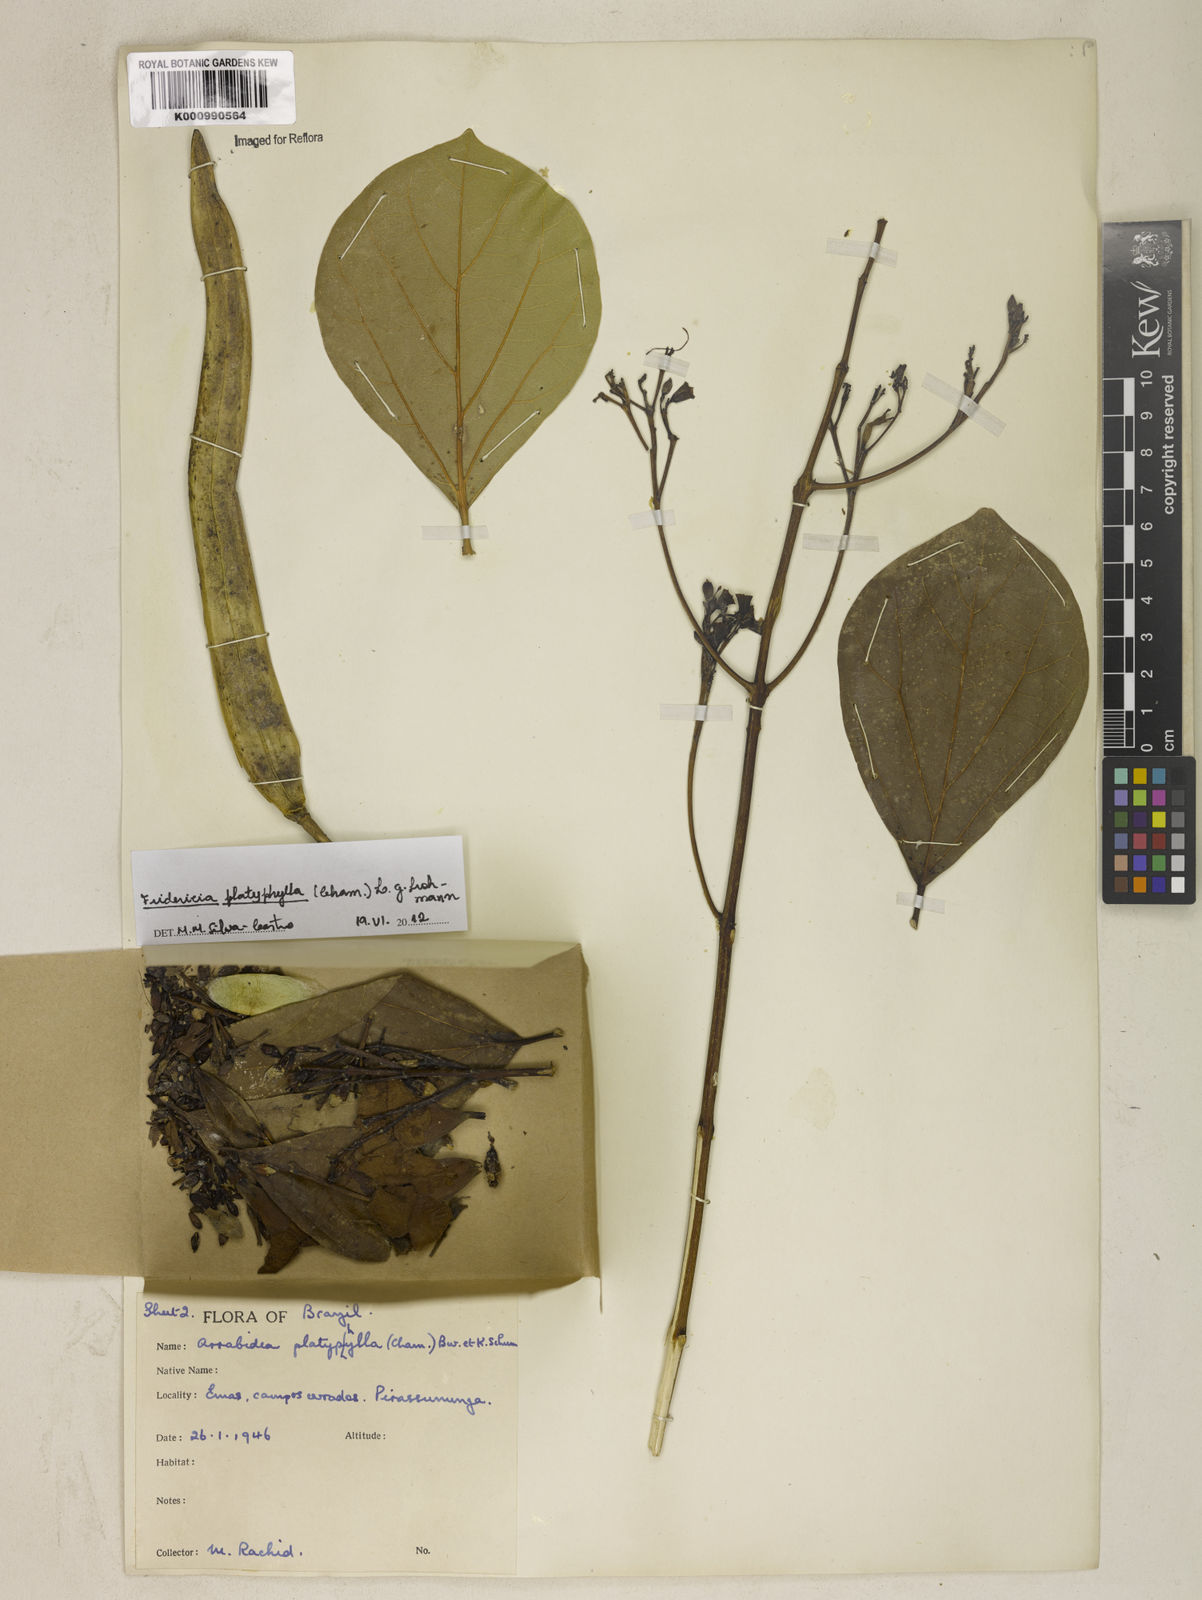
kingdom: Plantae
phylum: Tracheophyta
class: Magnoliopsida
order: Lamiales
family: Bignoniaceae
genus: Fridericia
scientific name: Fridericia platyphylla
